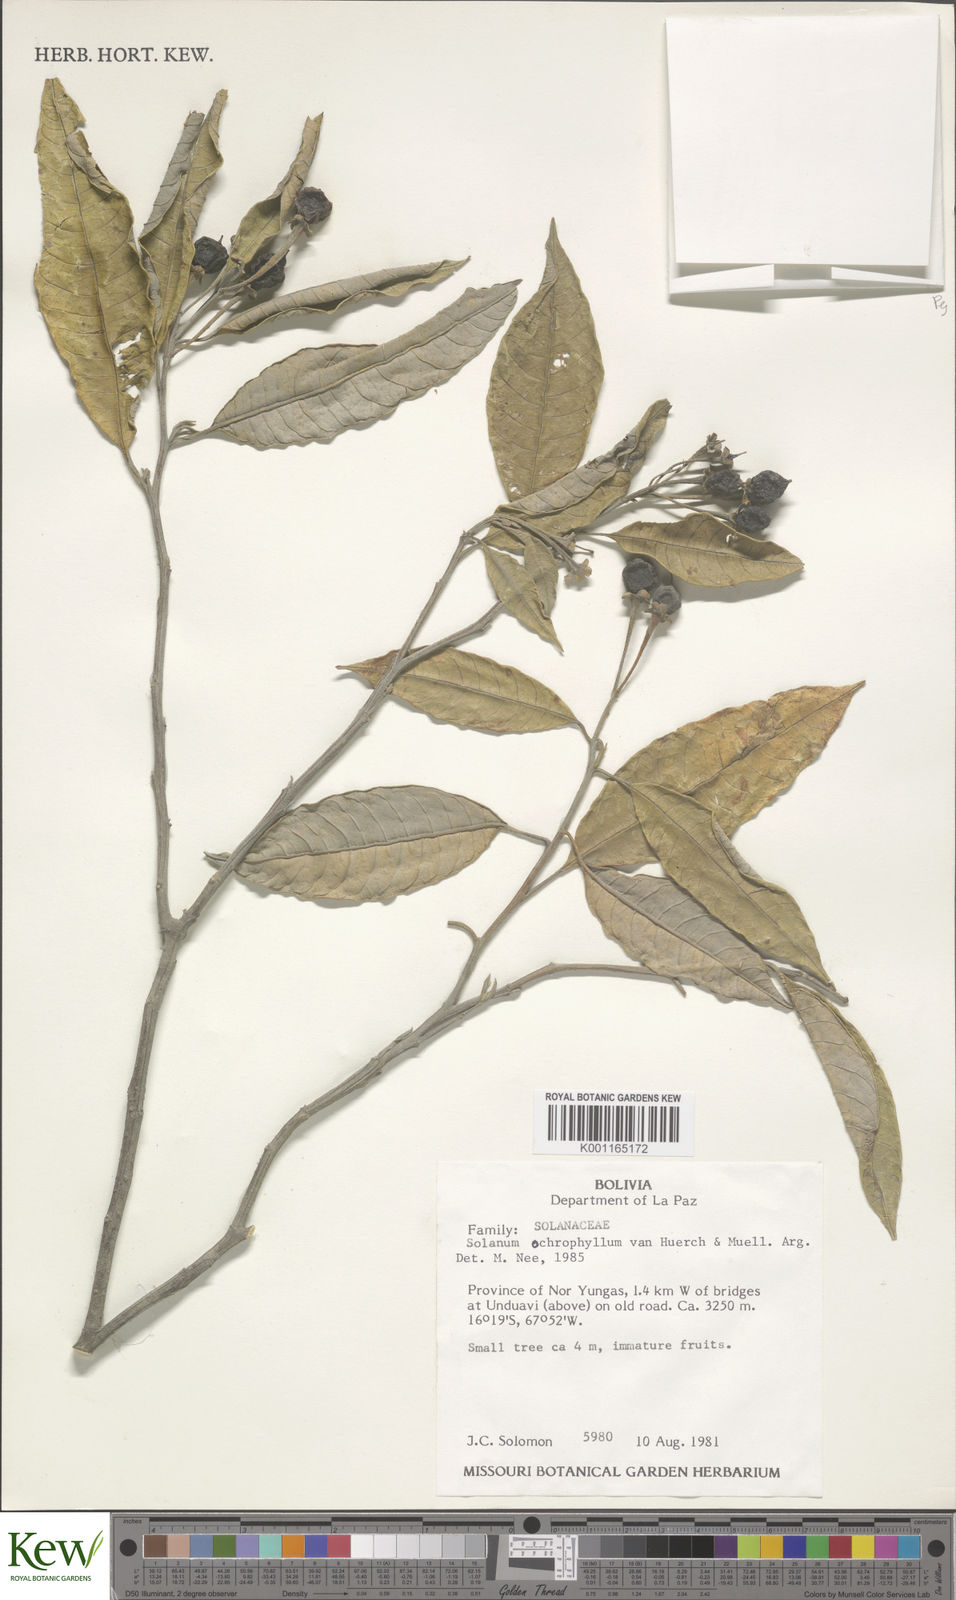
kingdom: Plantae
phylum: Tracheophyta
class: Magnoliopsida
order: Solanales
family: Solanaceae
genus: Solanum
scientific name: Solanum ochrophyllum
